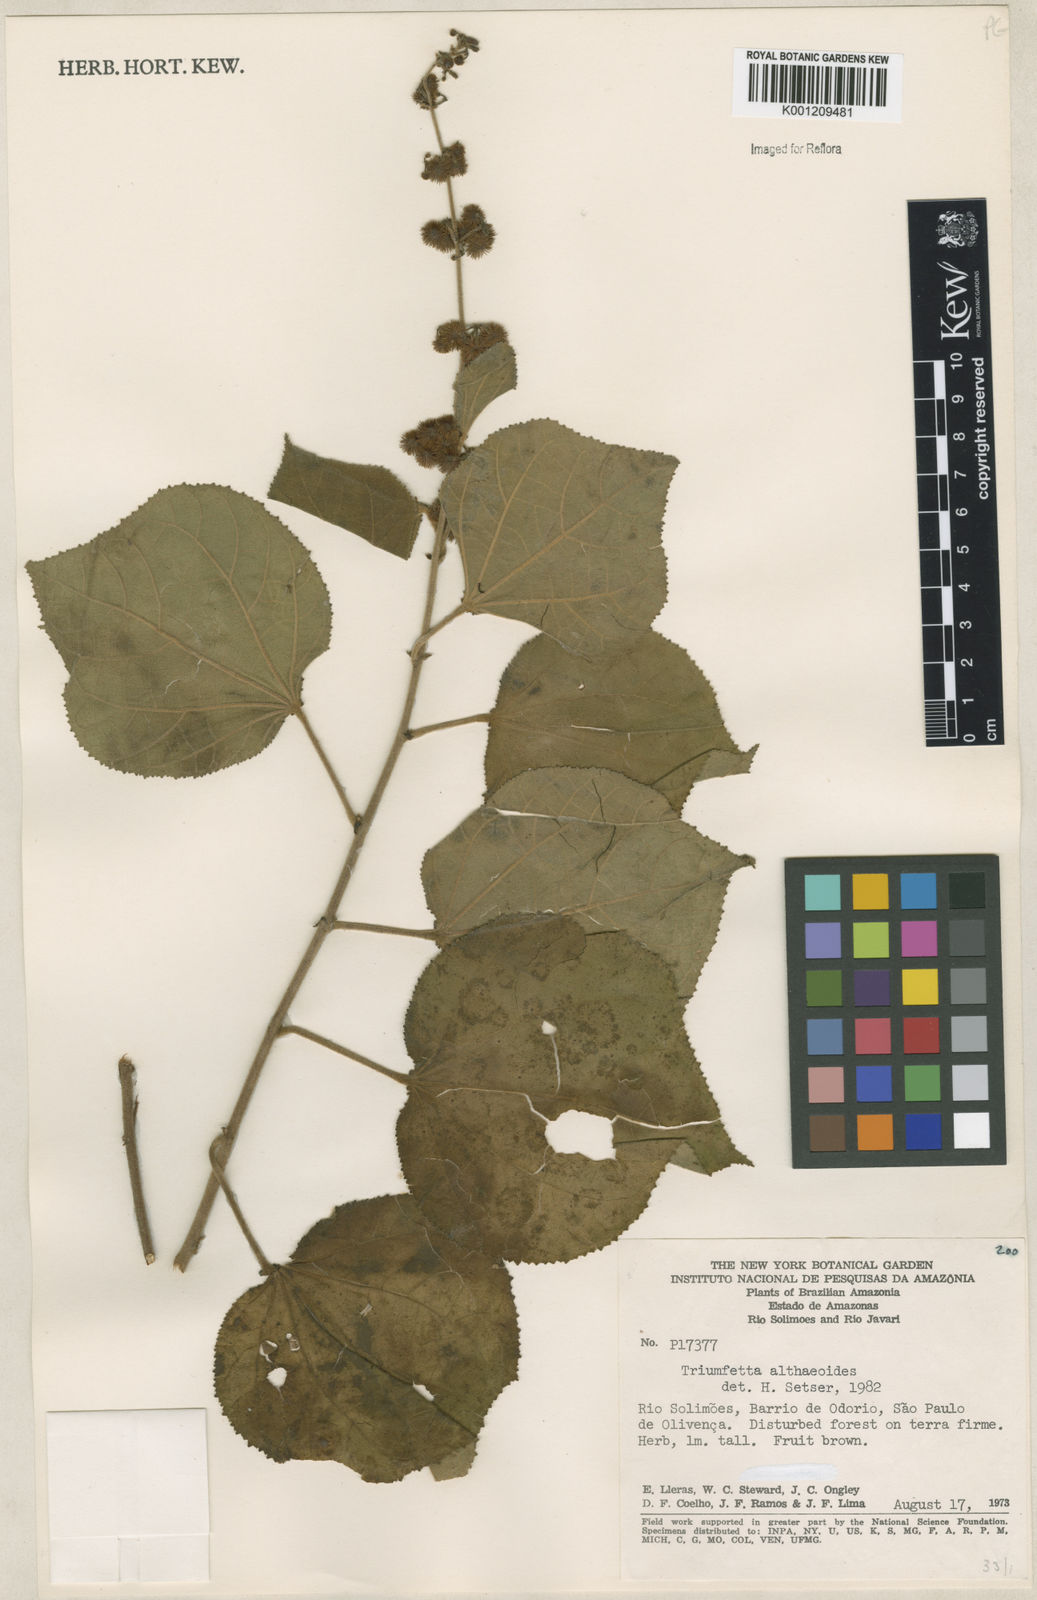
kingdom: Plantae
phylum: Tracheophyta
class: Magnoliopsida
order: Malvales
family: Malvaceae
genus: Triumfetta
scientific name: Triumfetta althaeoides
